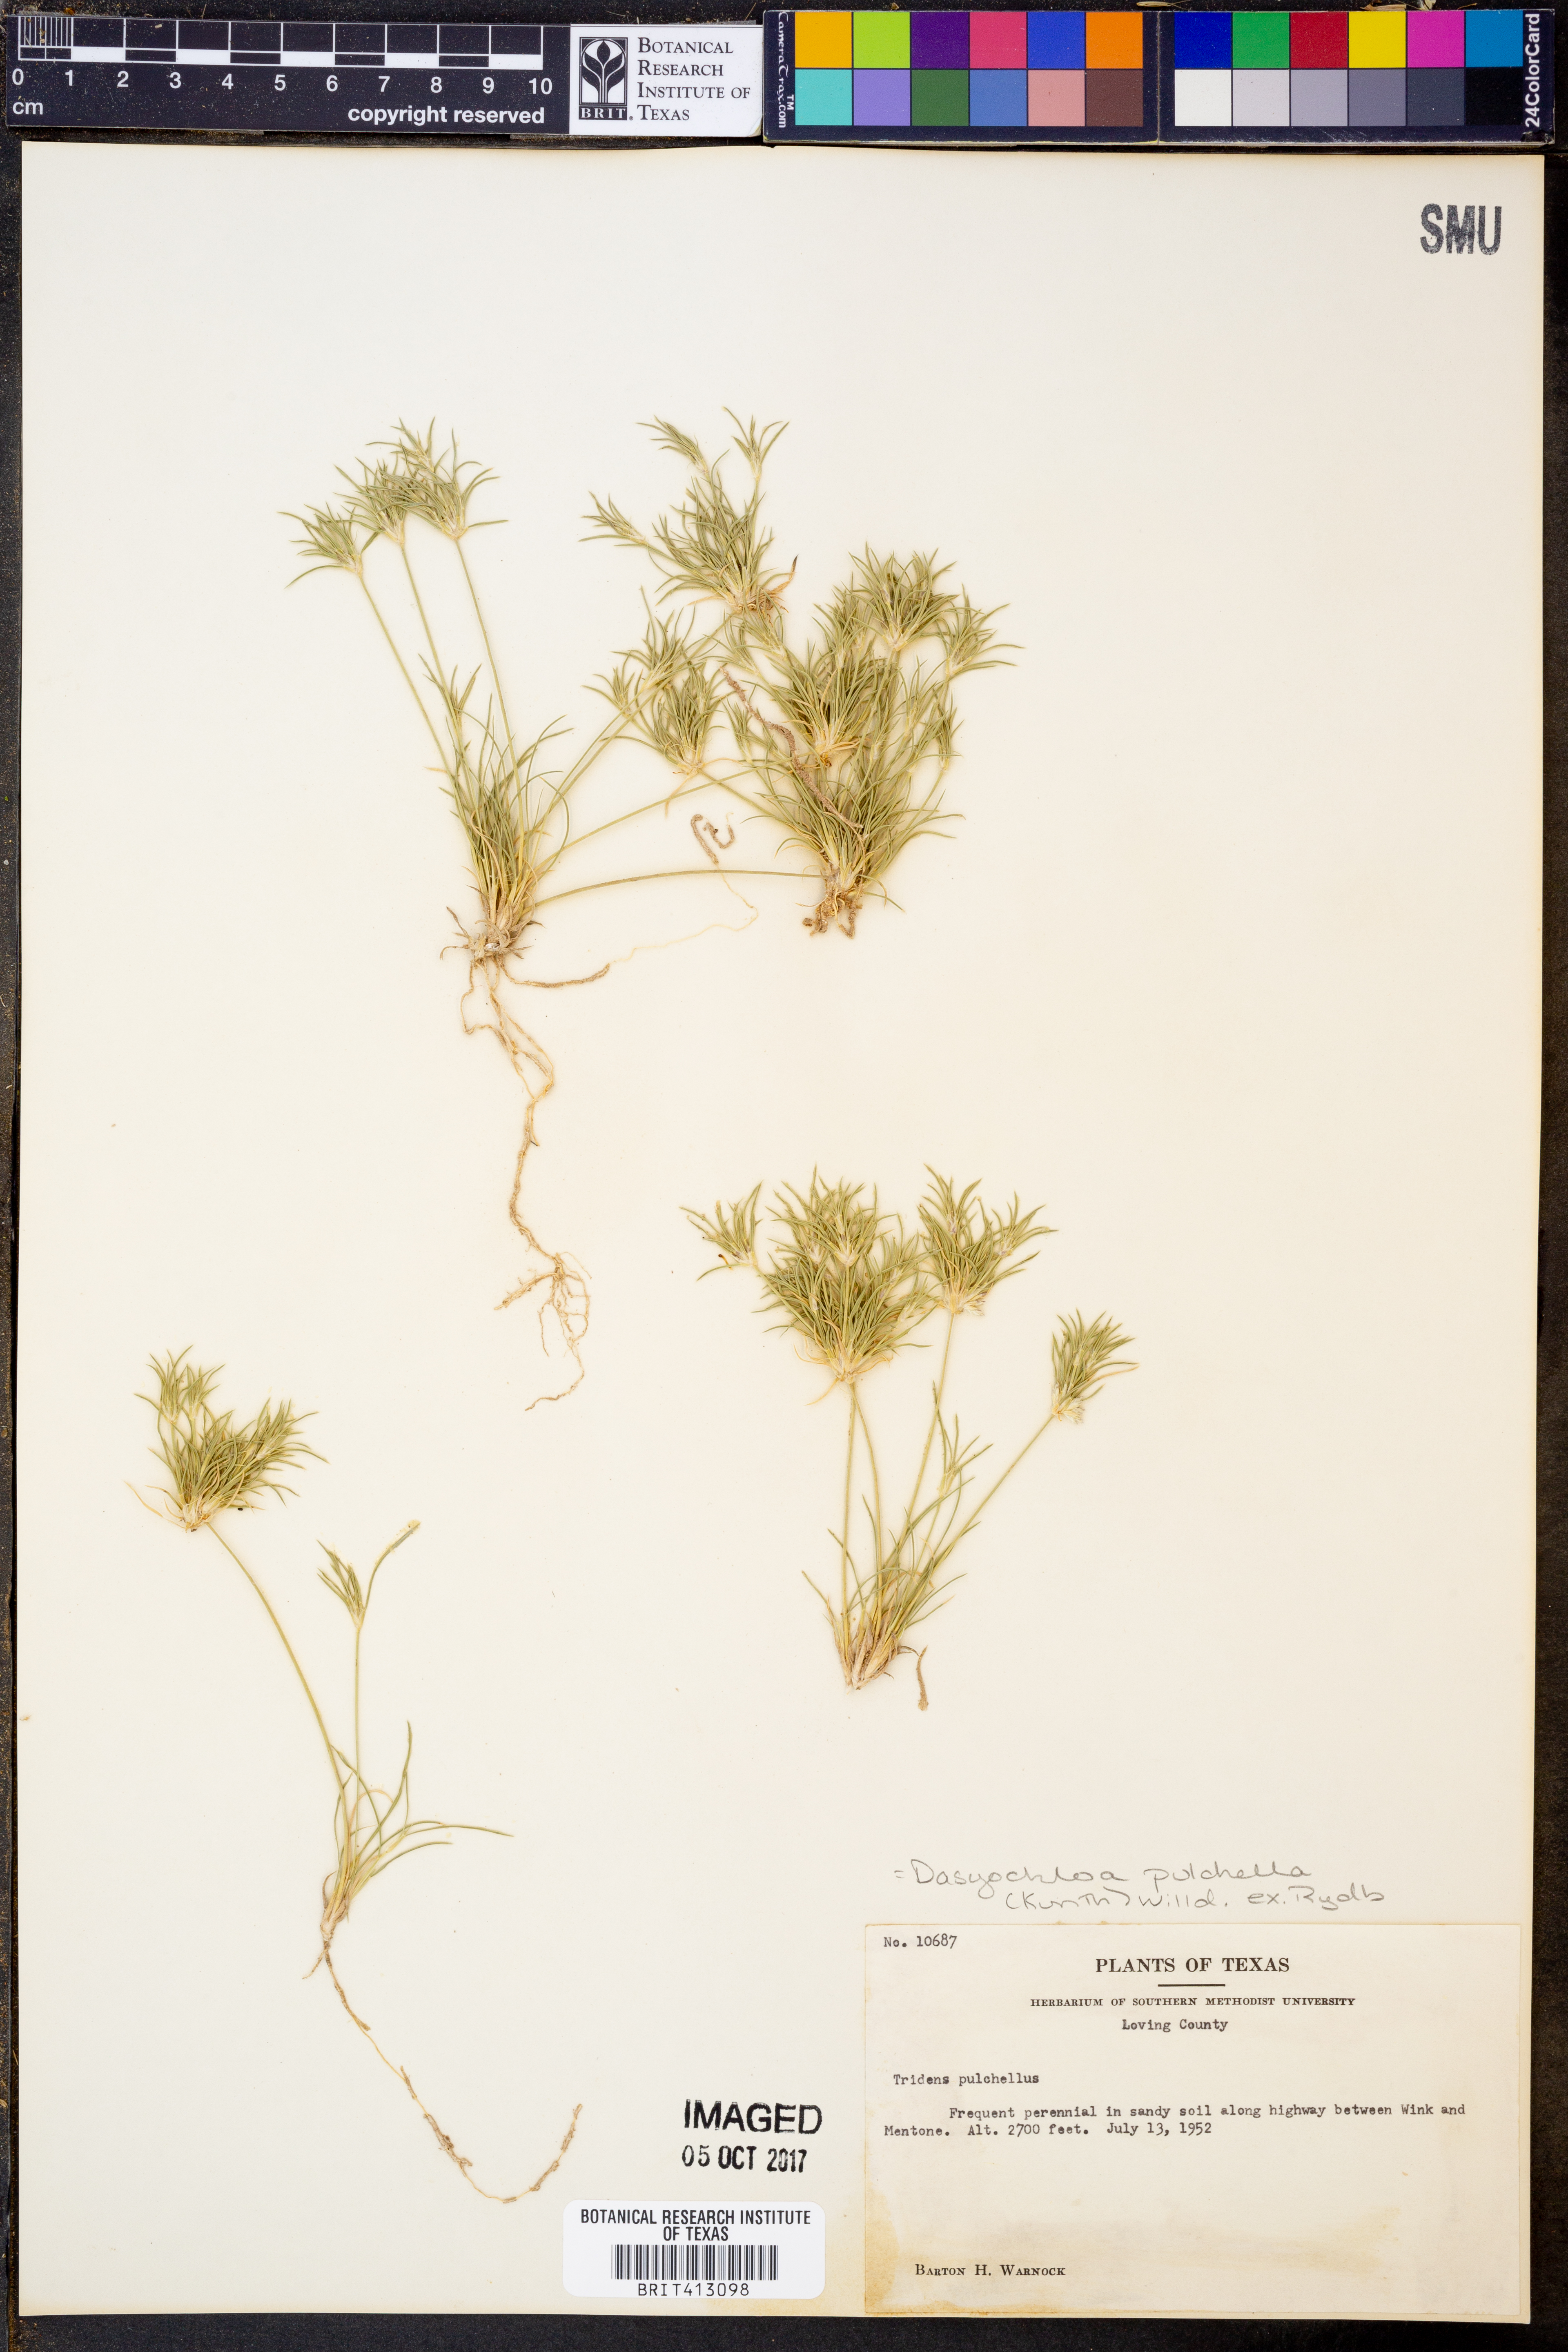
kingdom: Plantae
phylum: Tracheophyta
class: Liliopsida
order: Poales
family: Poaceae
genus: Munroa
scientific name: Munroa pulchella
